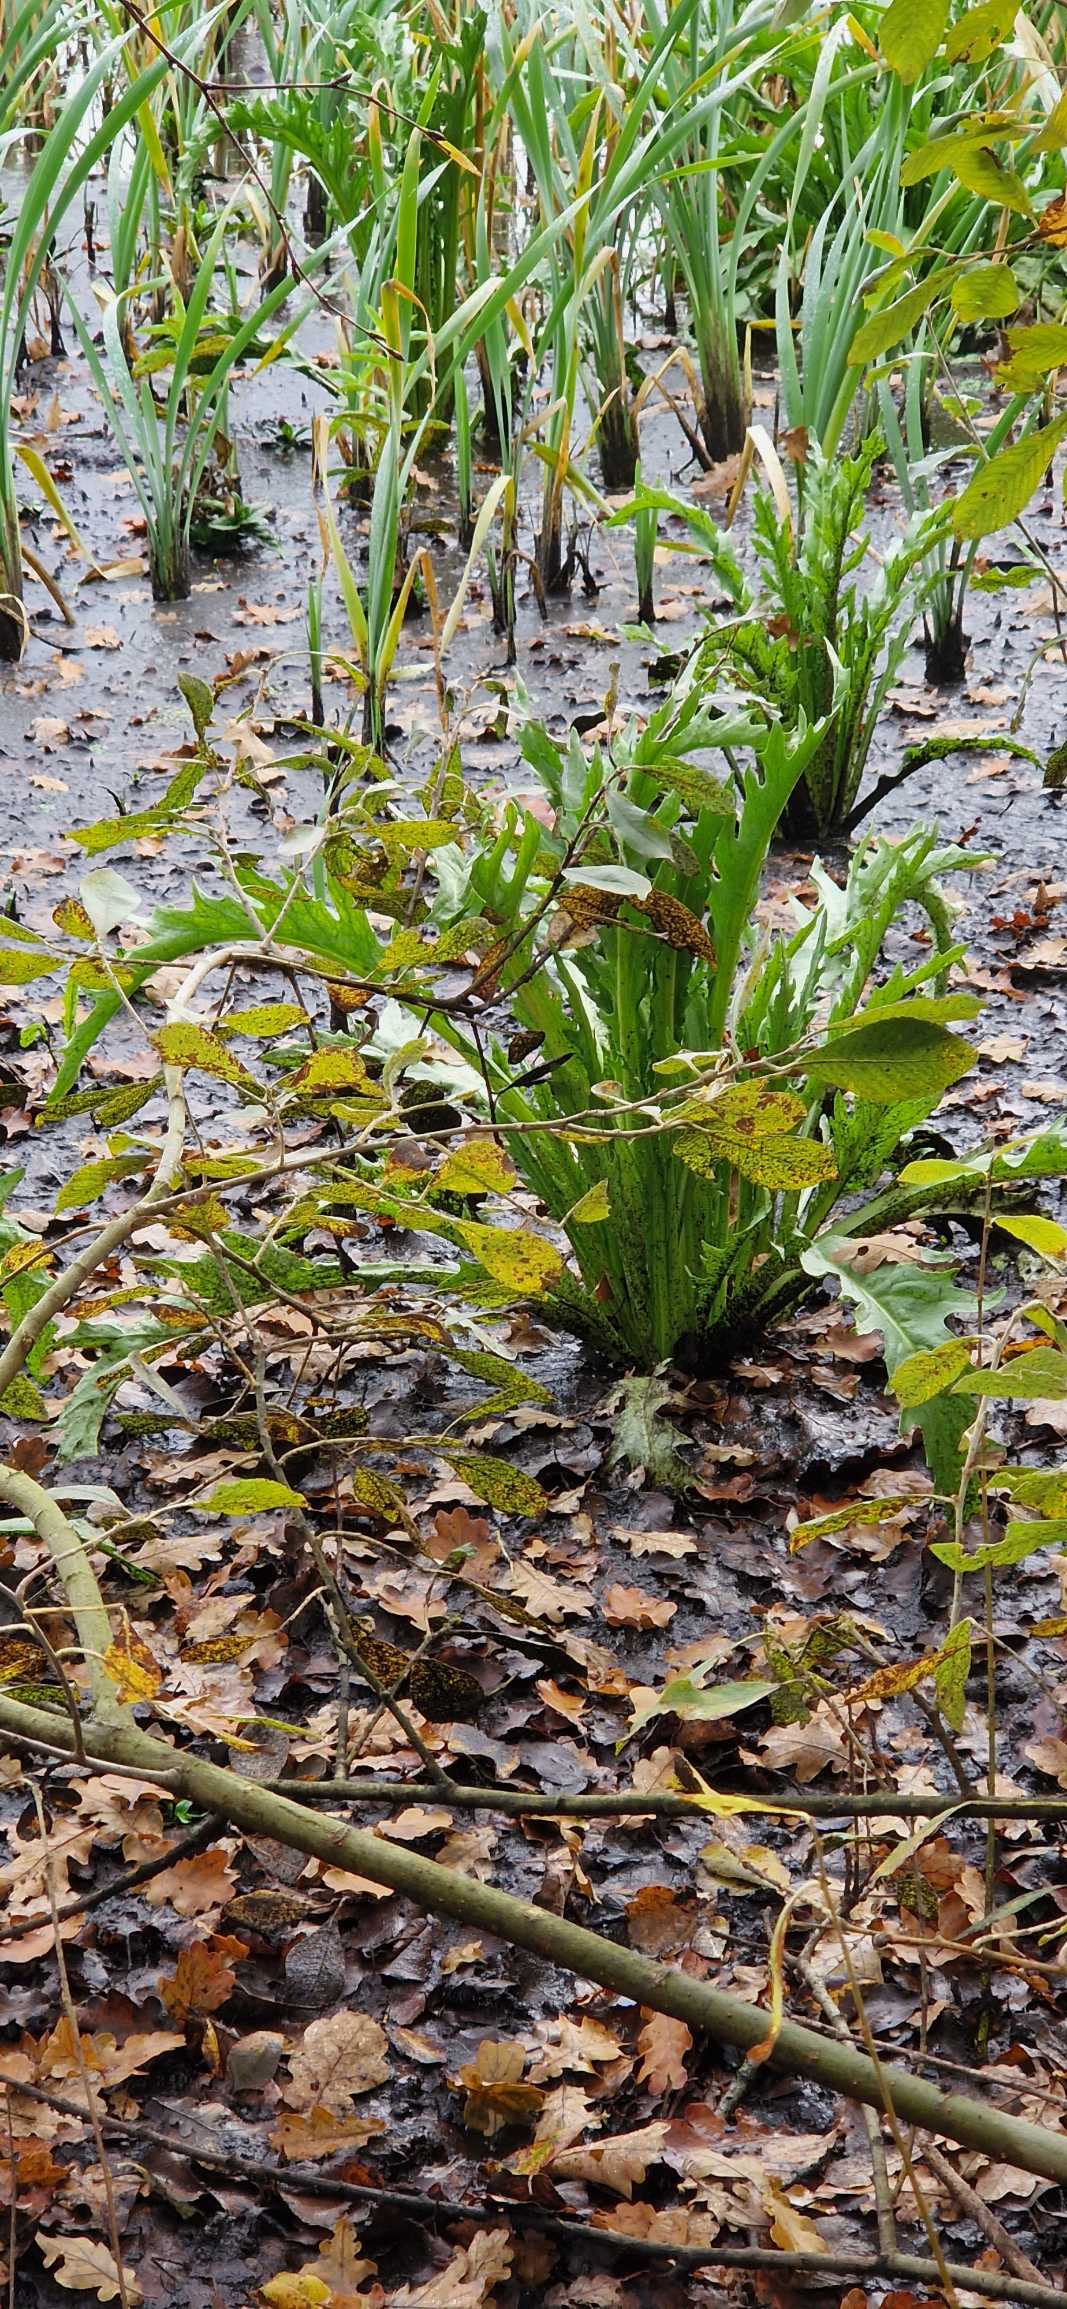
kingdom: Plantae
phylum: Tracheophyta
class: Magnoliopsida
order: Asterales
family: Asteraceae
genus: Tephroseris
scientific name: Tephroseris palustris
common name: Kær-fnokurt
